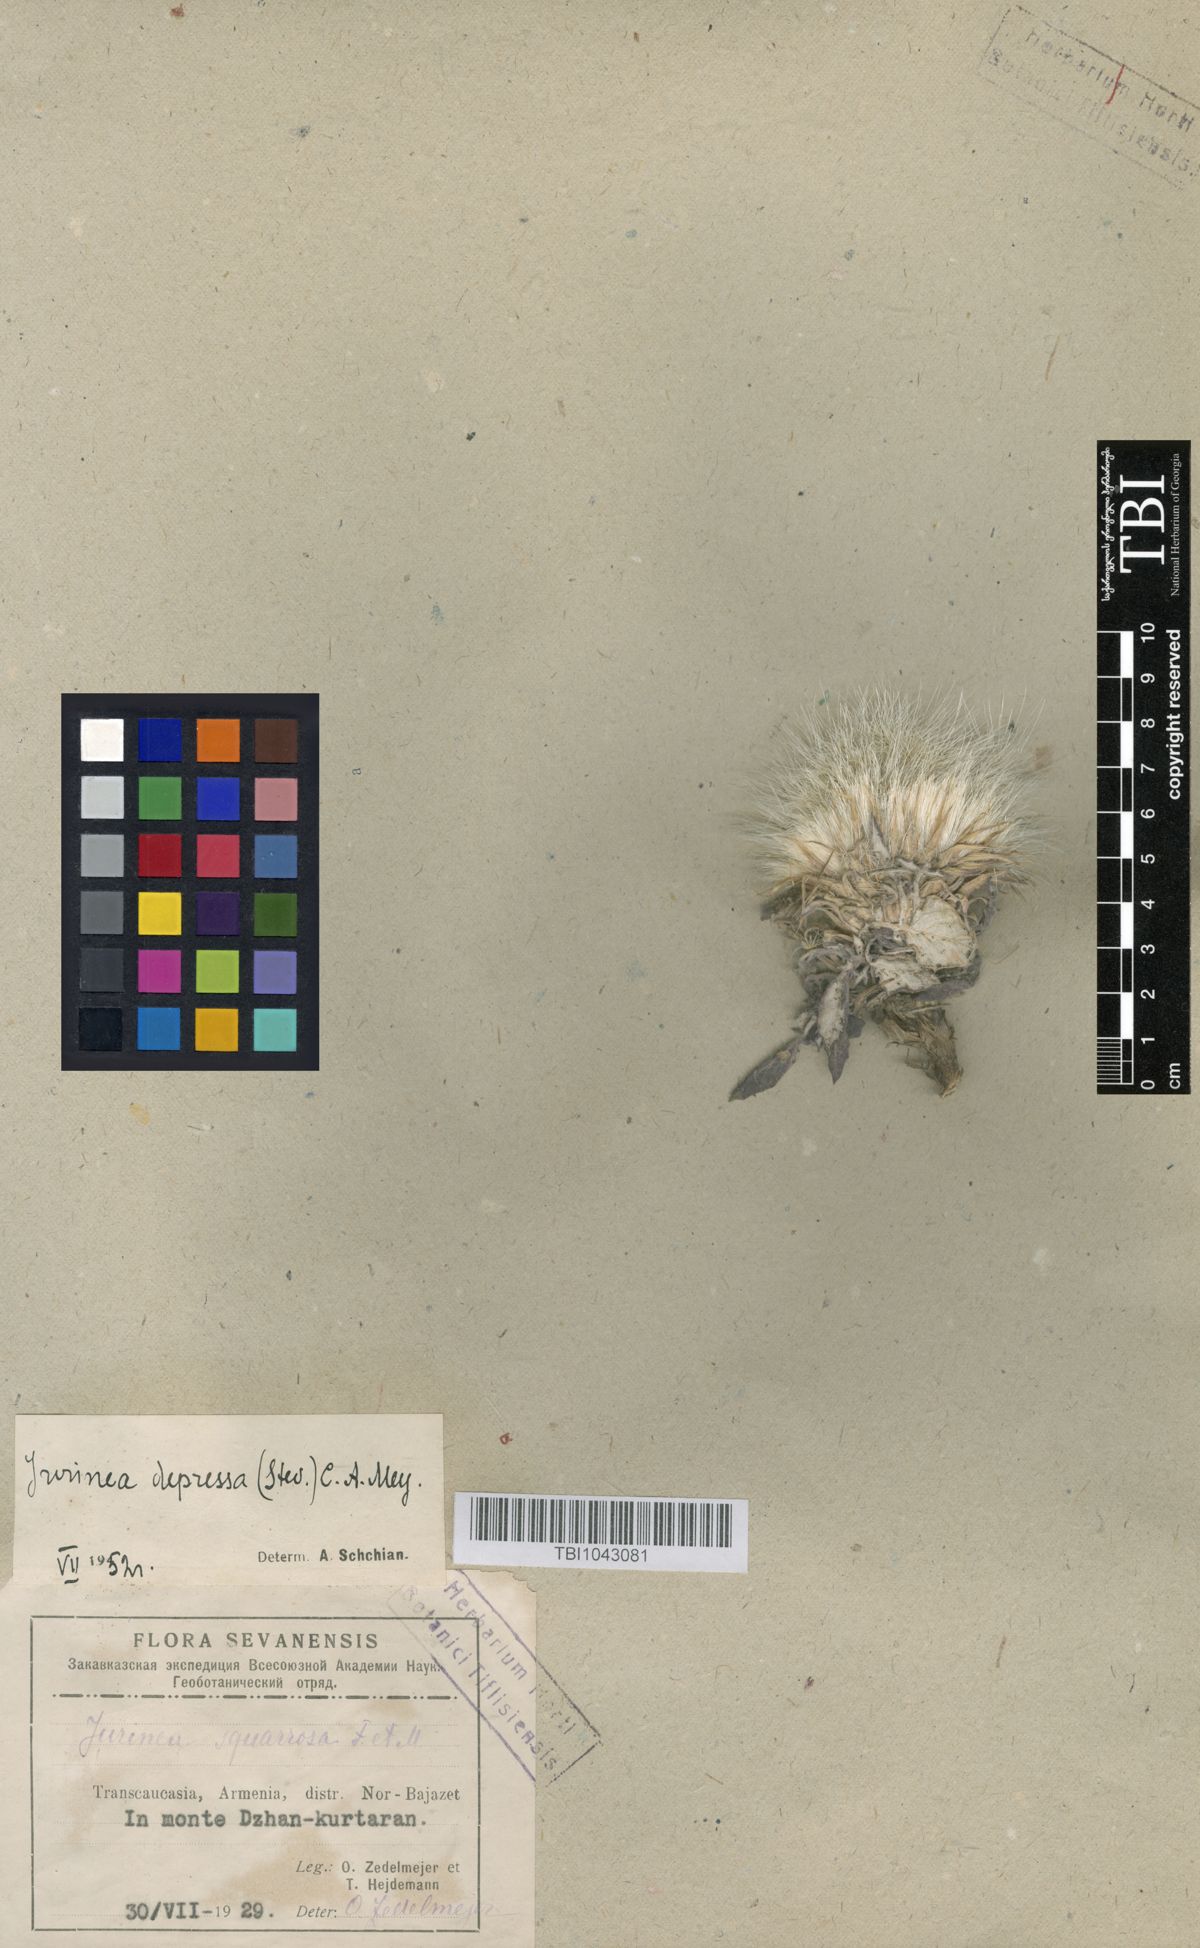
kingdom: Plantae
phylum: Tracheophyta
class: Magnoliopsida
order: Asterales
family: Asteraceae
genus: Jurinea
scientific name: Jurinea moschus
